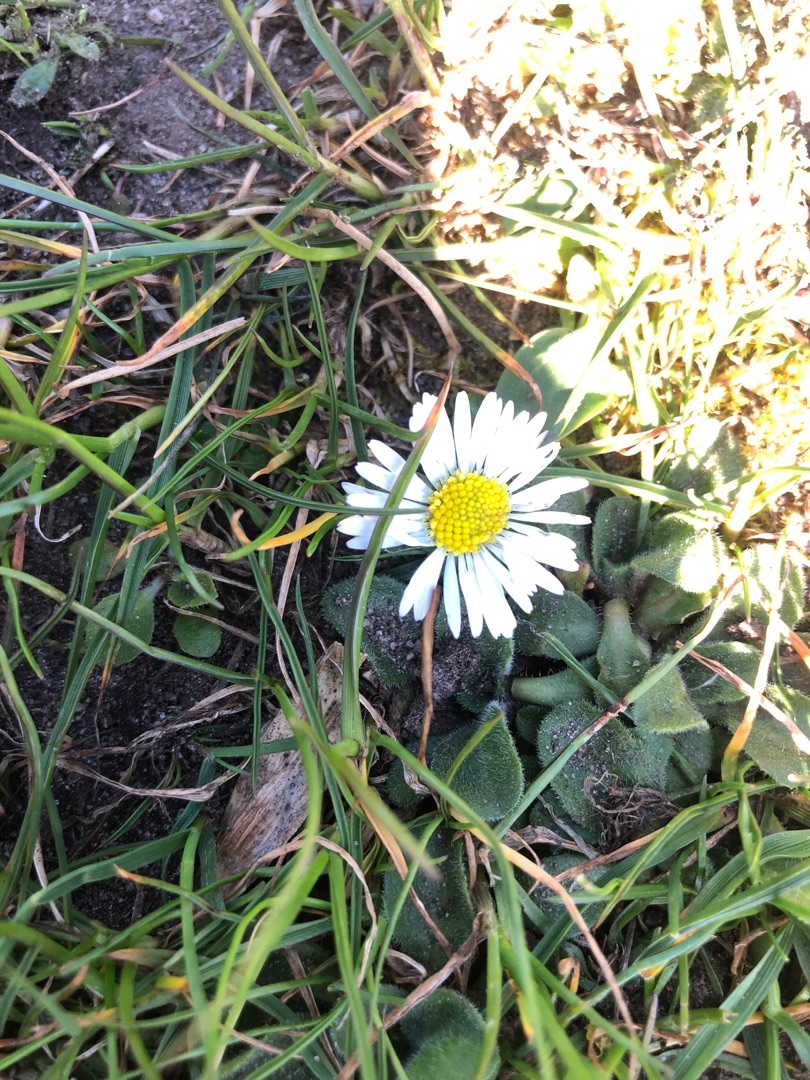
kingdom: Plantae
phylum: Tracheophyta
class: Magnoliopsida
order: Asterales
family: Asteraceae
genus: Bellis
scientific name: Bellis perennis
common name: Tusindfryd
